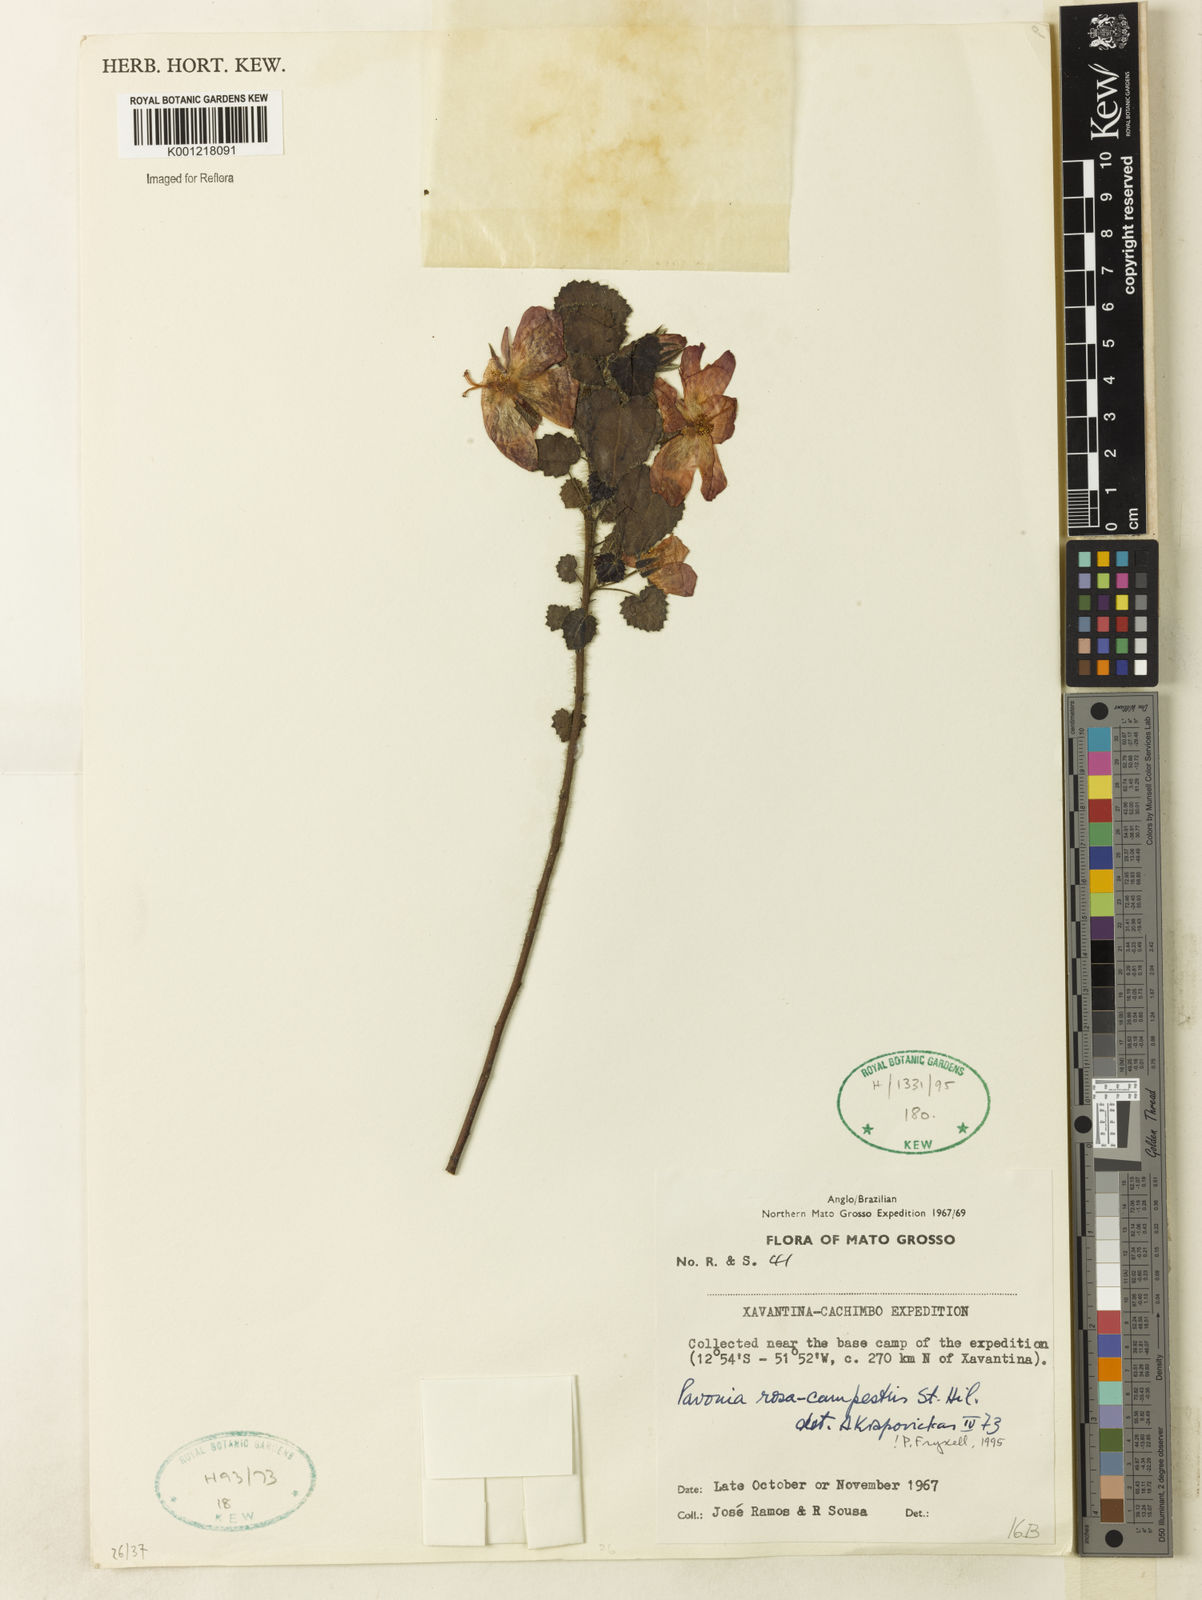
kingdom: Plantae
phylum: Tracheophyta
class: Magnoliopsida
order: Malvales
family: Malvaceae
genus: Pavonia
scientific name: Pavonia rosa-campestris
